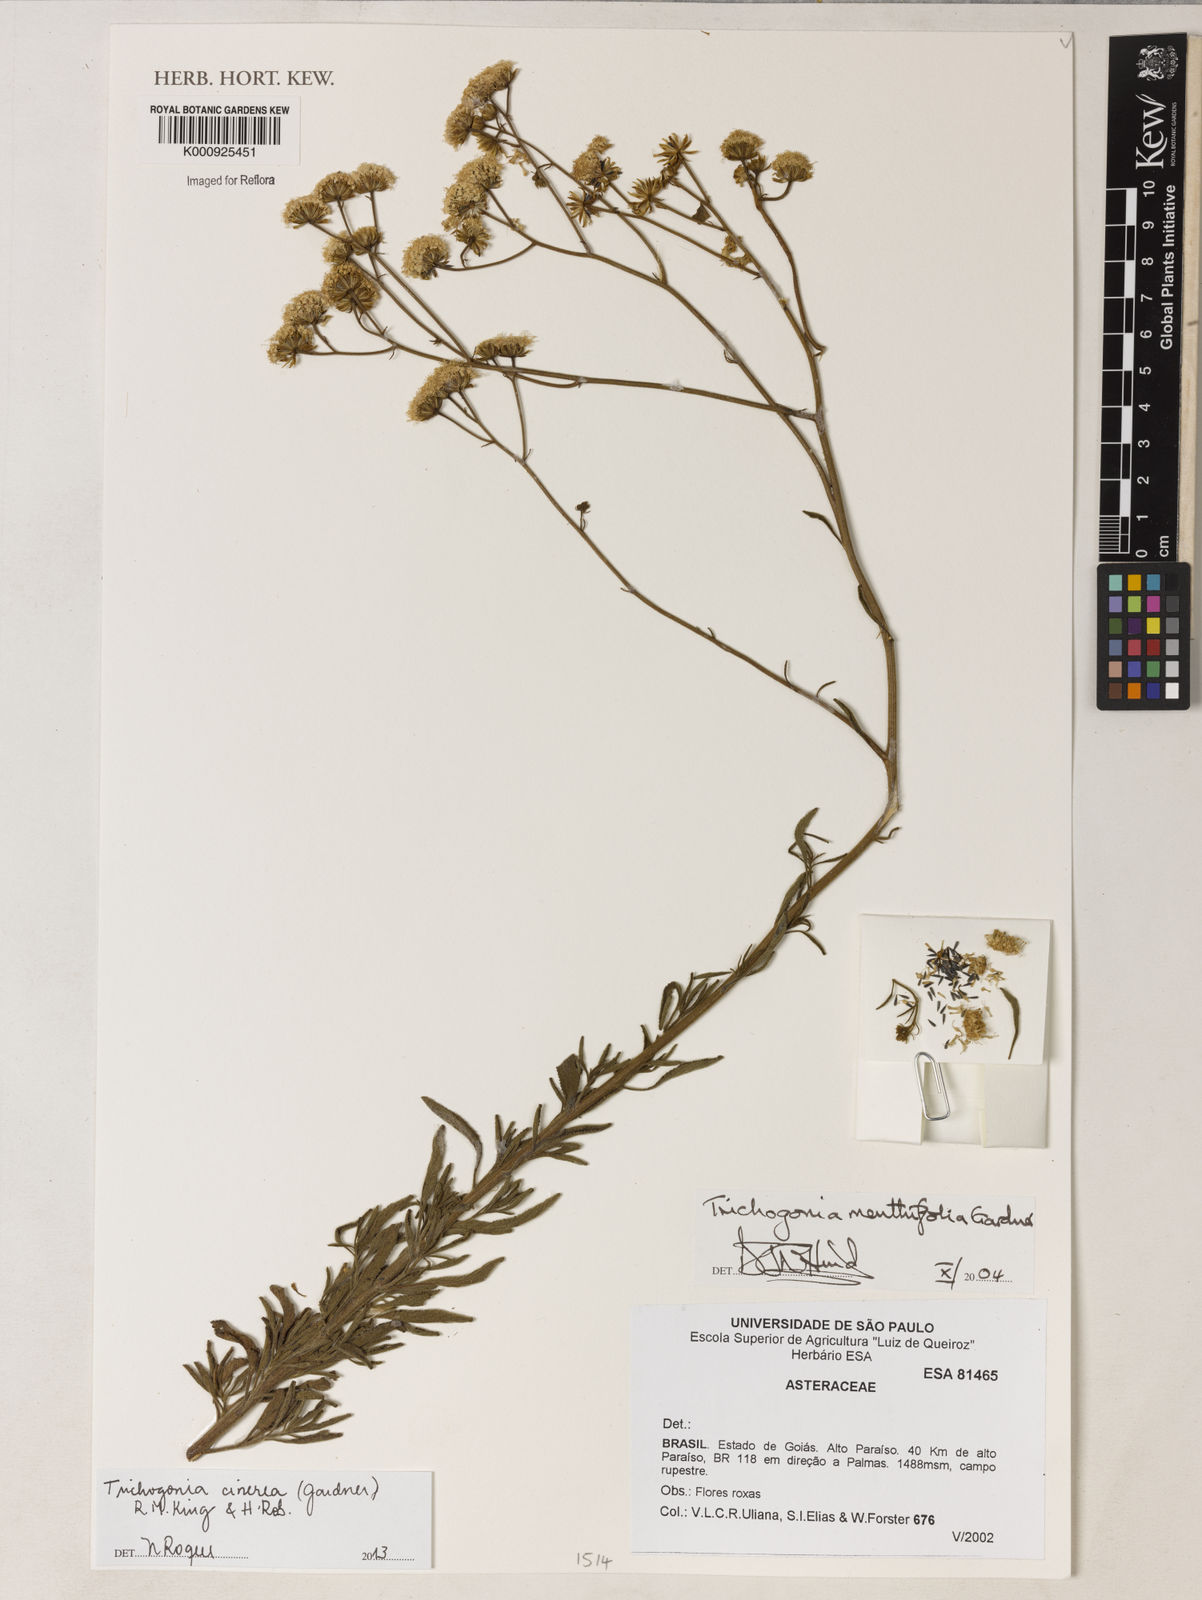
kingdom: Plantae
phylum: Tracheophyta
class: Magnoliopsida
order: Asterales
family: Asteraceae
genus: Trichogonia
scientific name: Trichogonia cinerea
